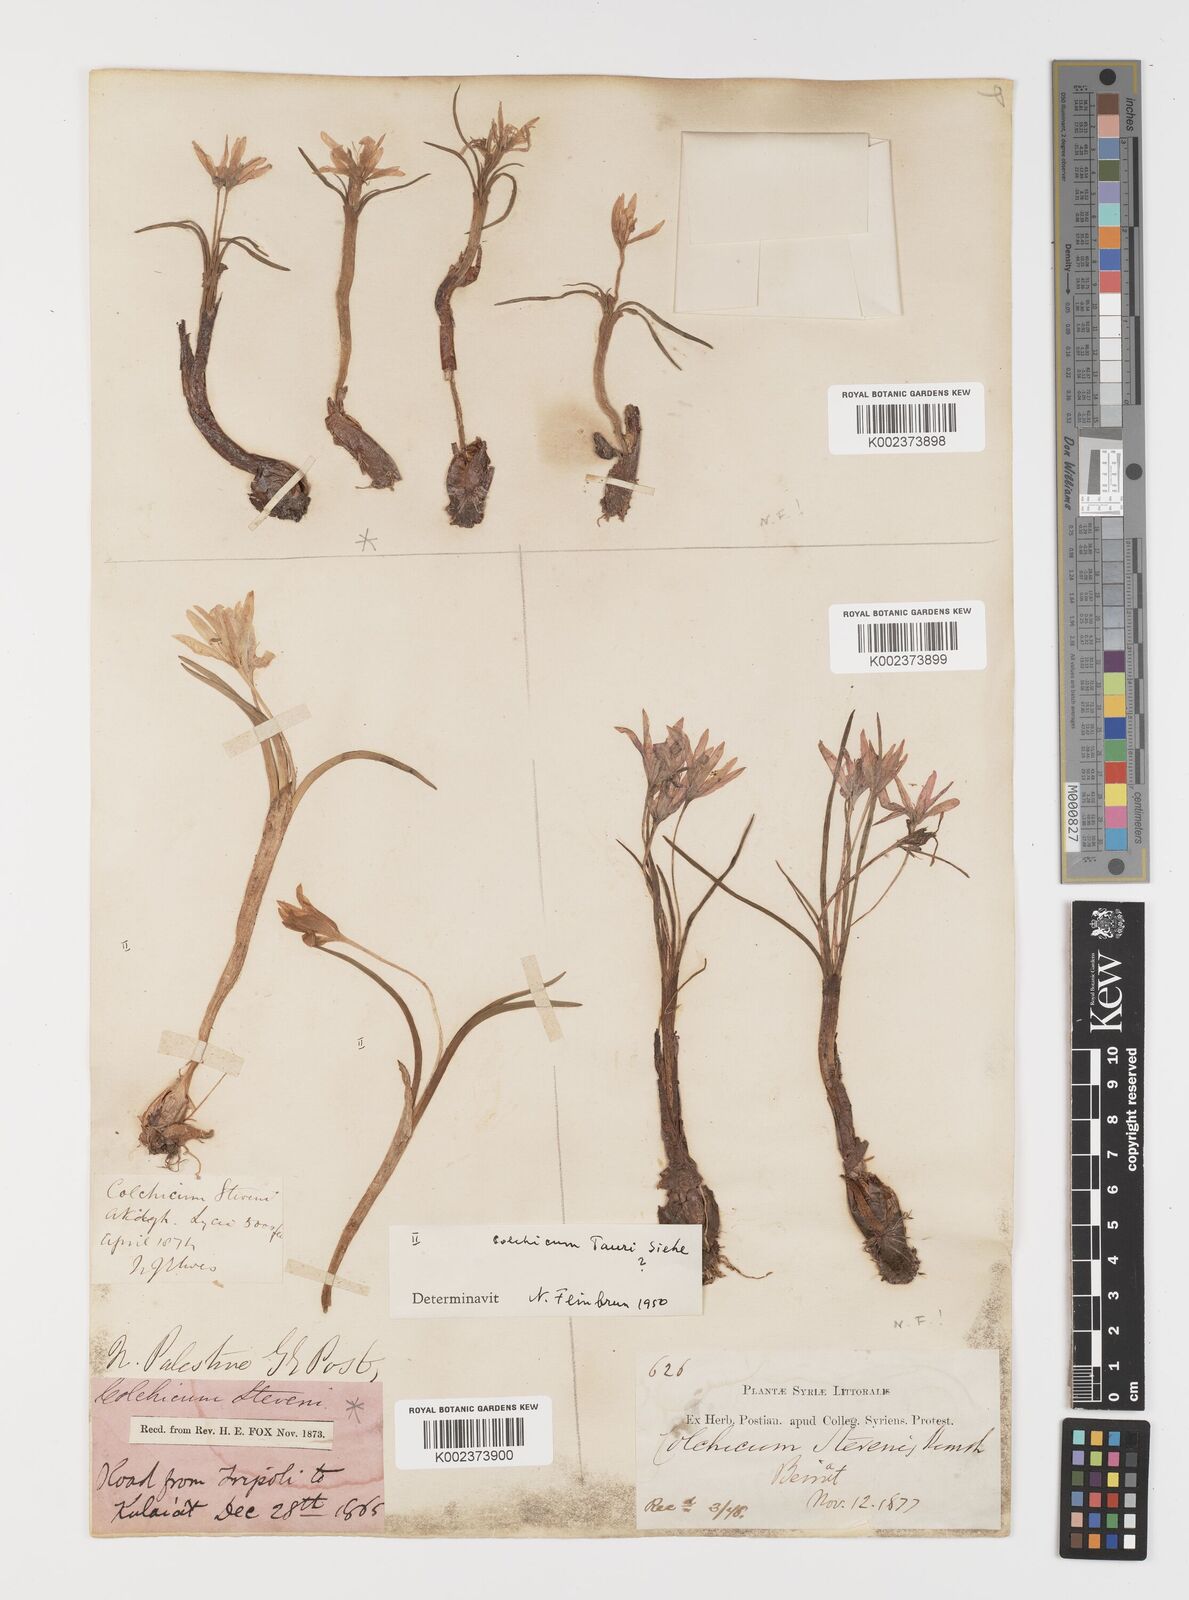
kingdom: Plantae
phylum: Tracheophyta
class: Liliopsida
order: Liliales
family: Colchicaceae
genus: Colchicum
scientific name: Colchicum stevenii
